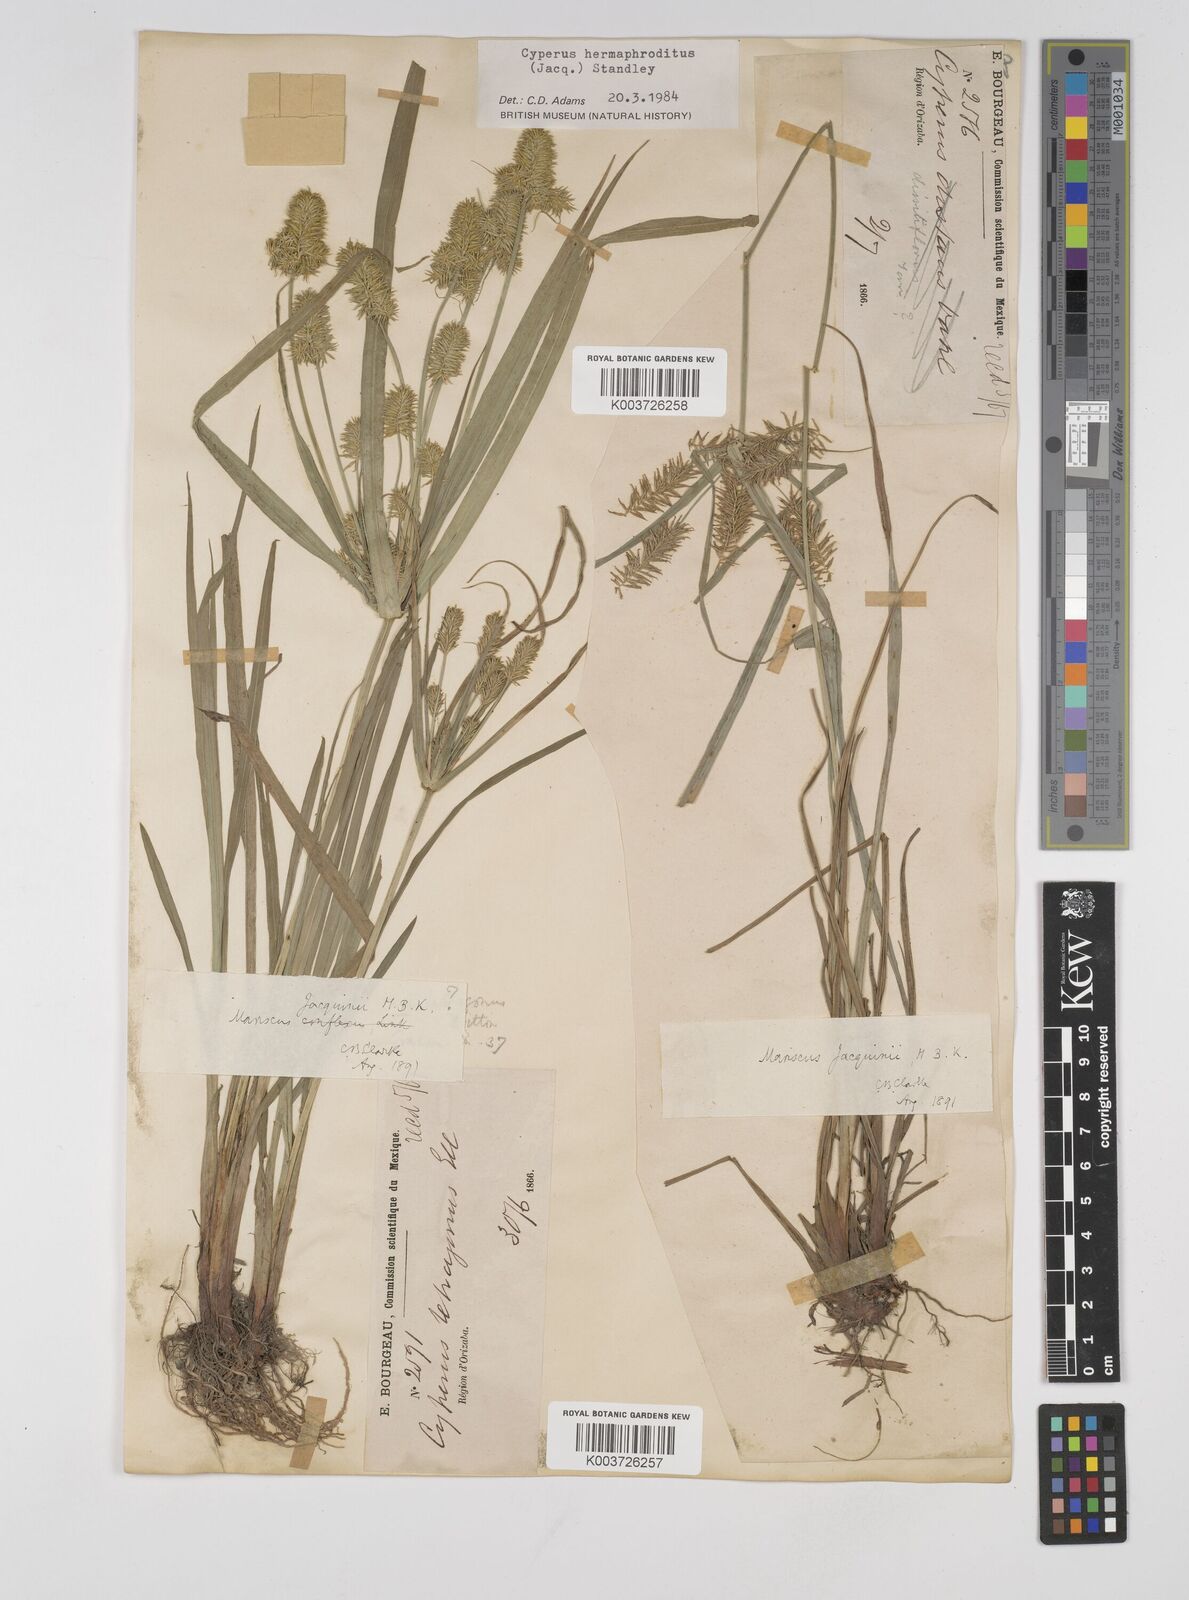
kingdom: Plantae
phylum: Tracheophyta
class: Liliopsida
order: Poales
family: Cyperaceae
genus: Cyperus
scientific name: Cyperus nutans
